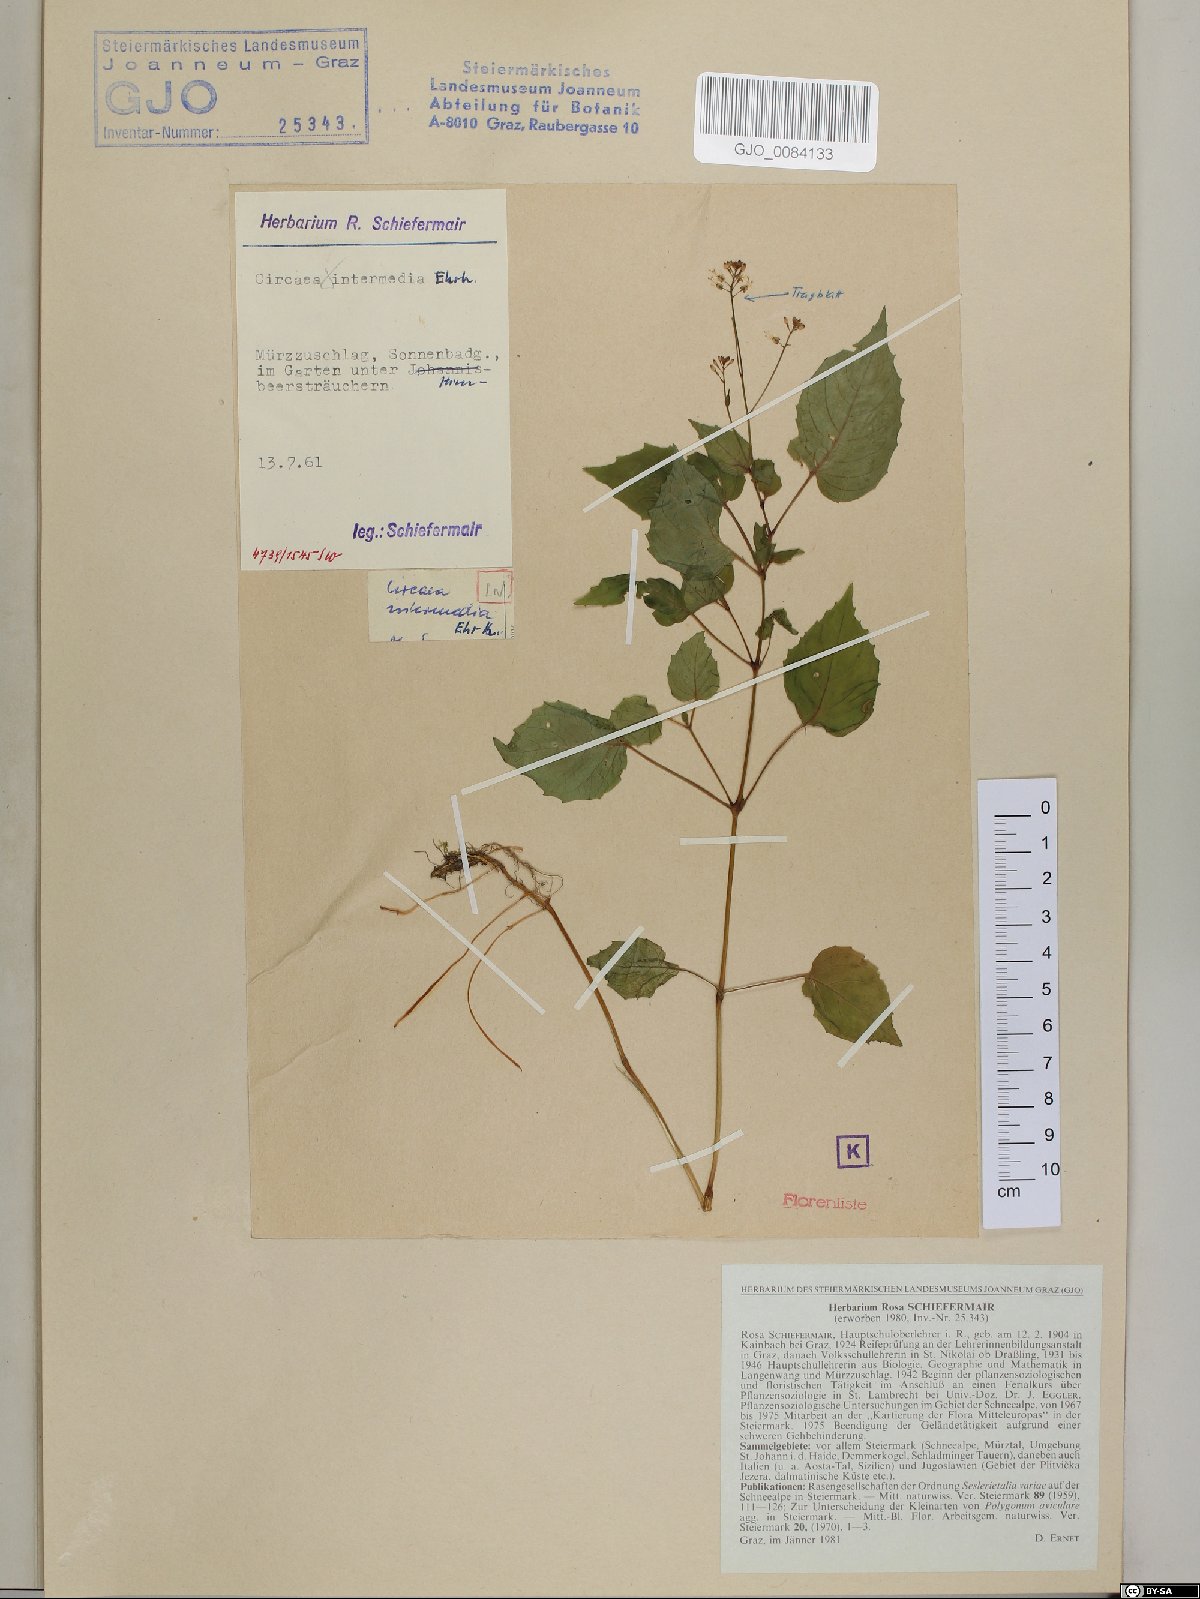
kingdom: Plantae
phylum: Tracheophyta
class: Magnoliopsida
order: Myrtales
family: Onagraceae
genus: Circaea
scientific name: Circaea intermedia
